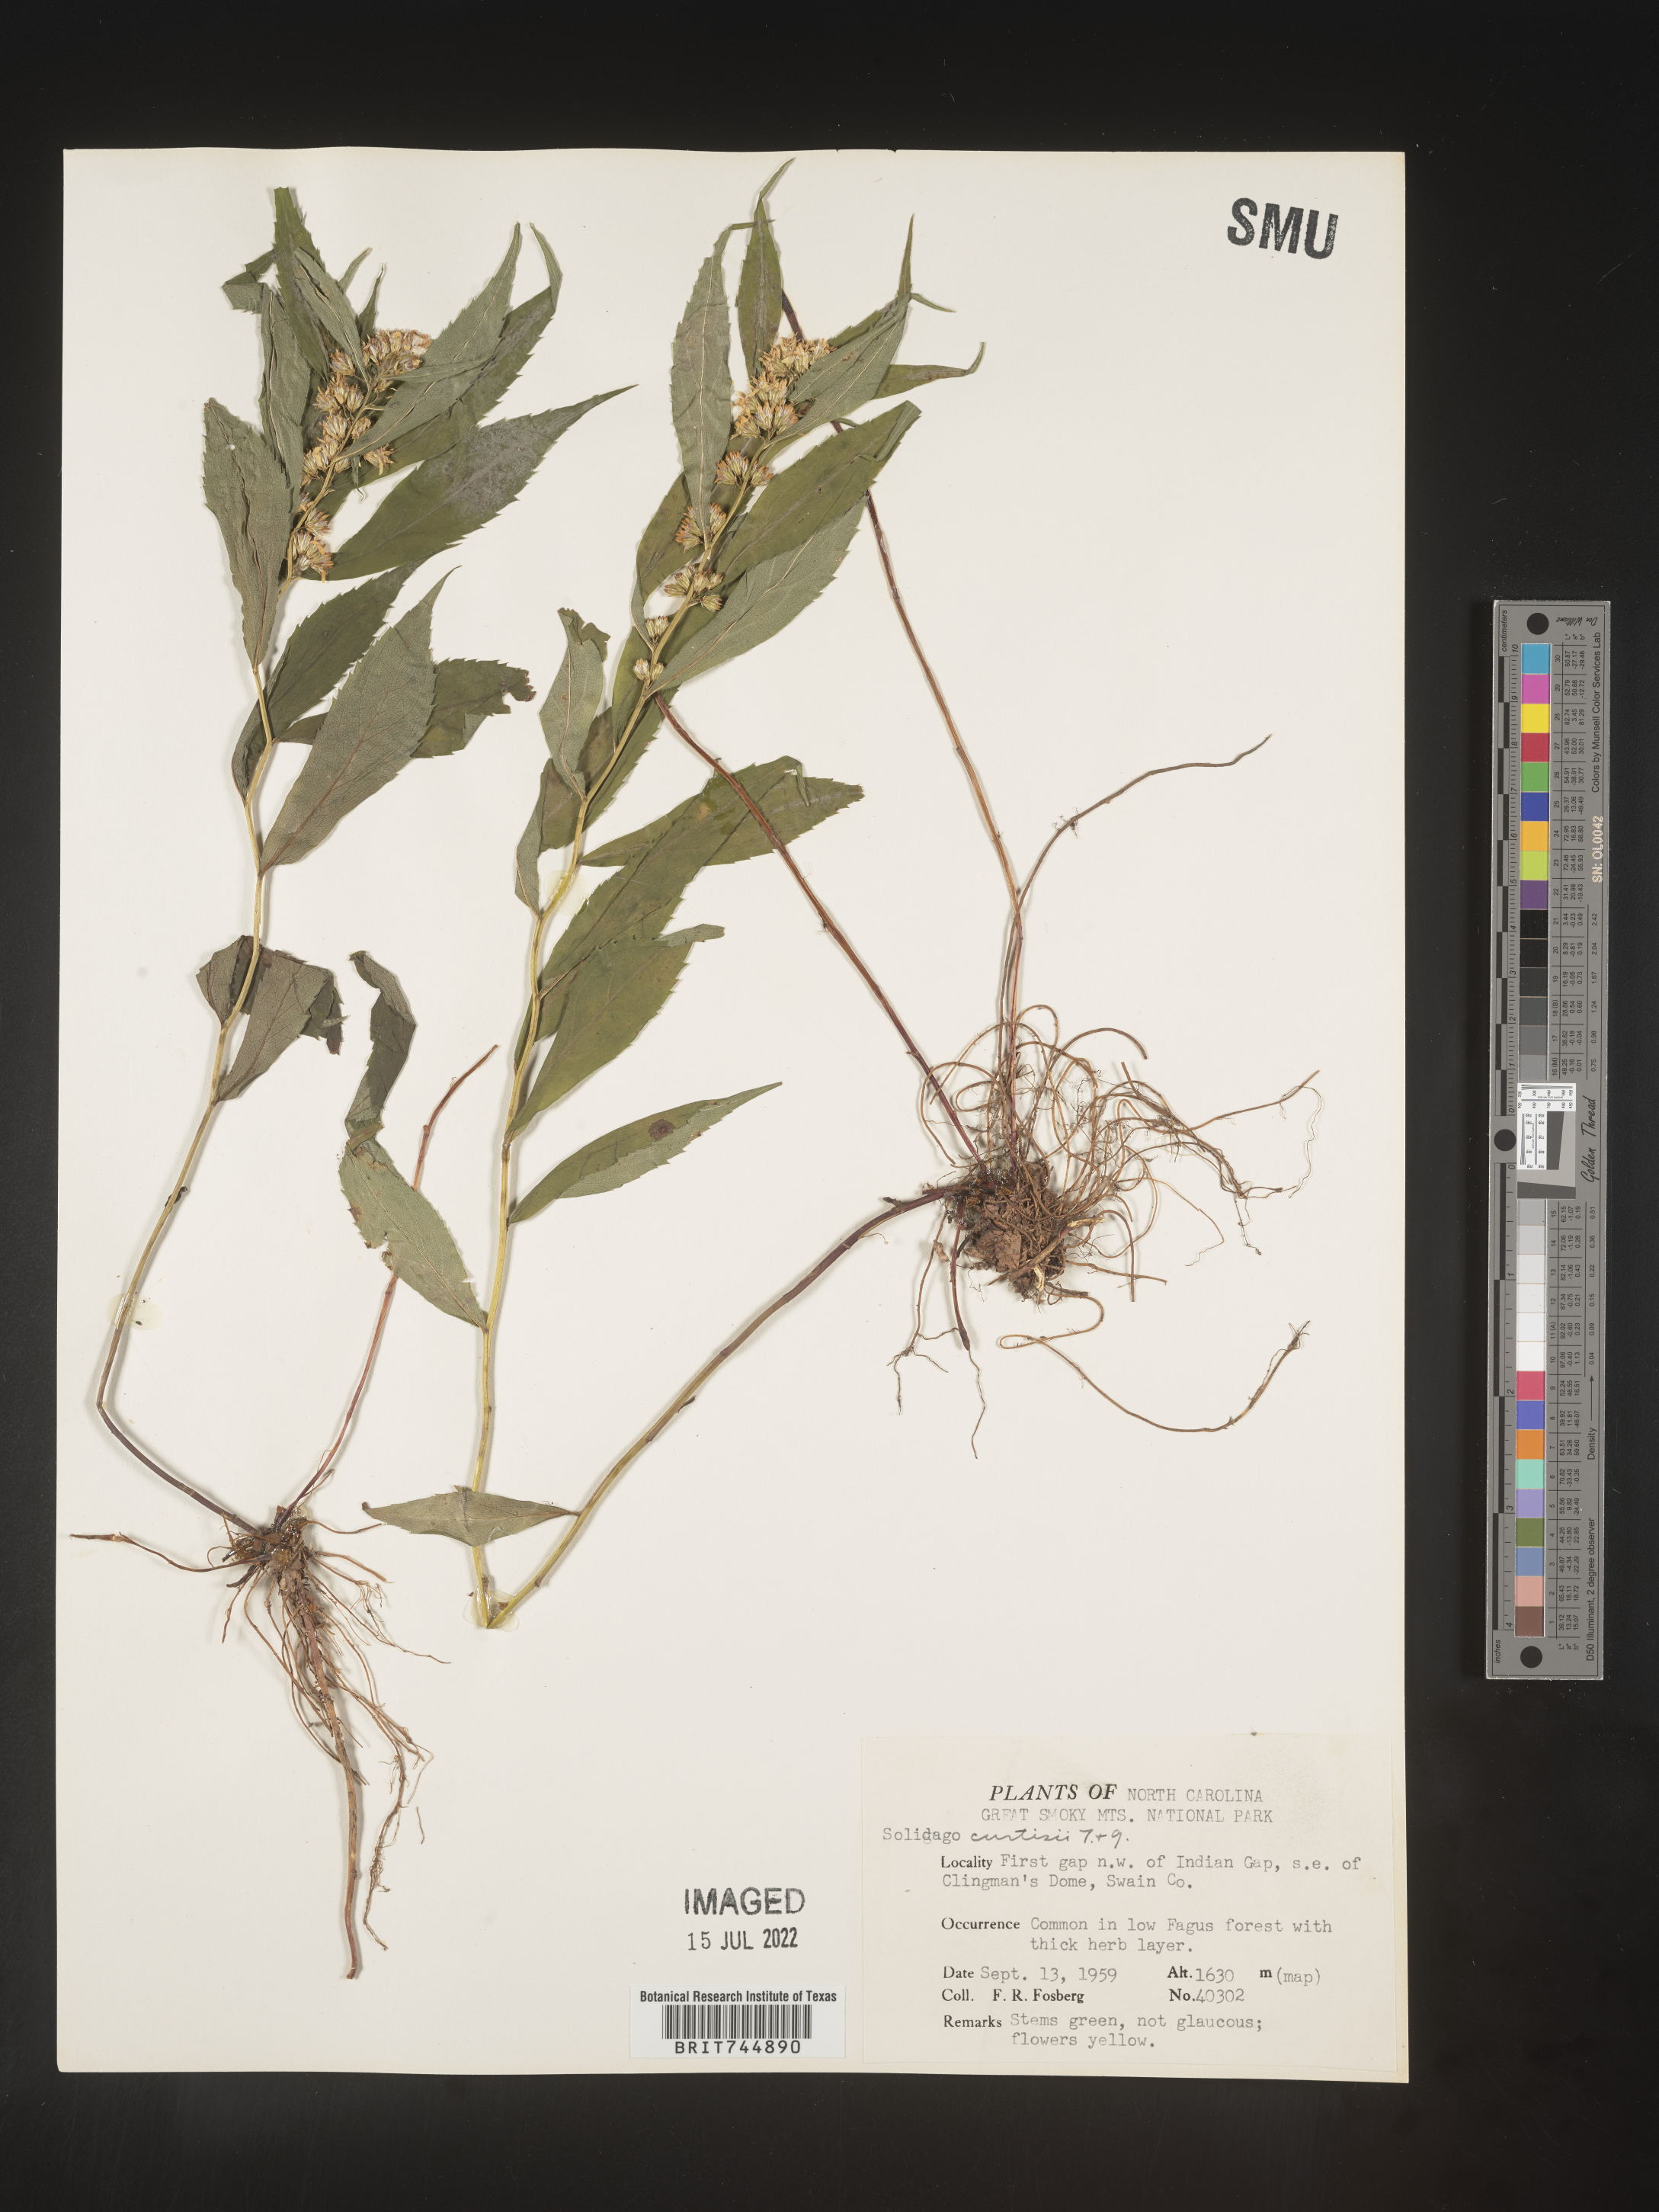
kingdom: Plantae
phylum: Tracheophyta
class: Magnoliopsida
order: Asterales
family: Asteraceae
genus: Solidago
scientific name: Solidago curtisii
